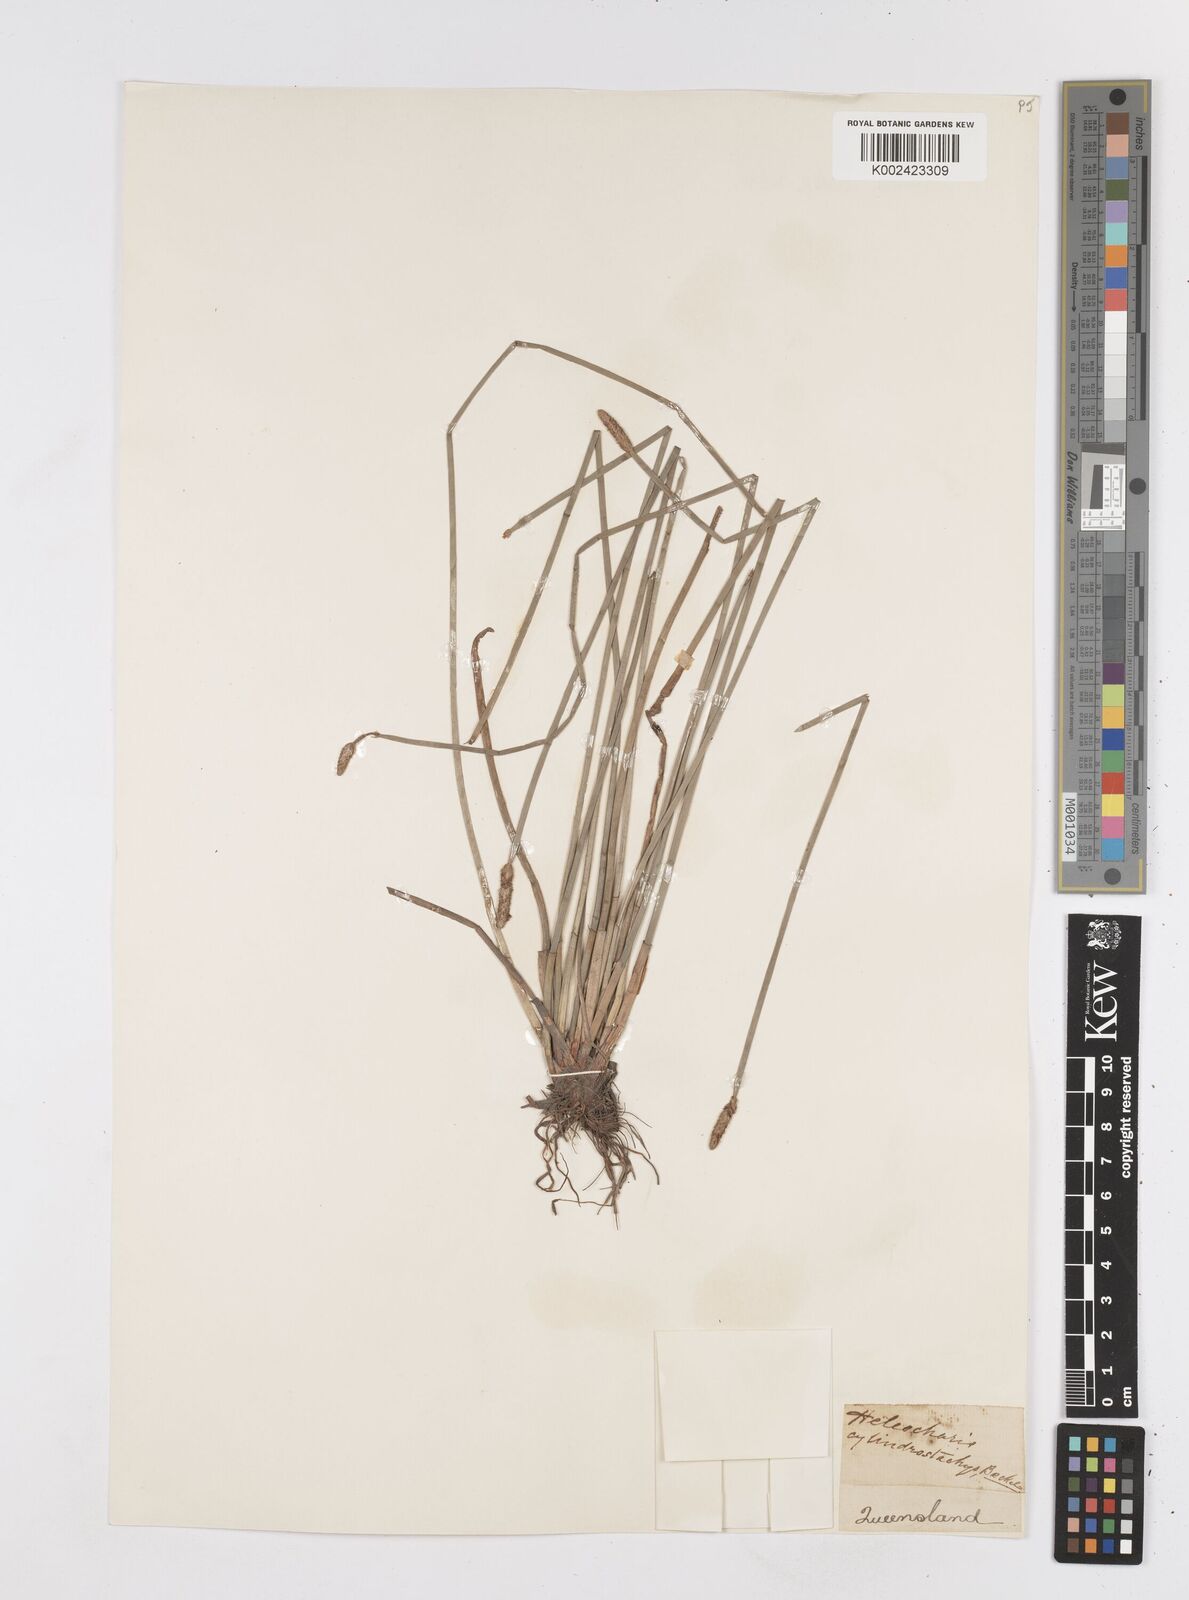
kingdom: Plantae
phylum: Tracheophyta
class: Liliopsida
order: Poales
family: Cyperaceae
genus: Eleocharis
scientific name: Eleocharis cylindrostachys
